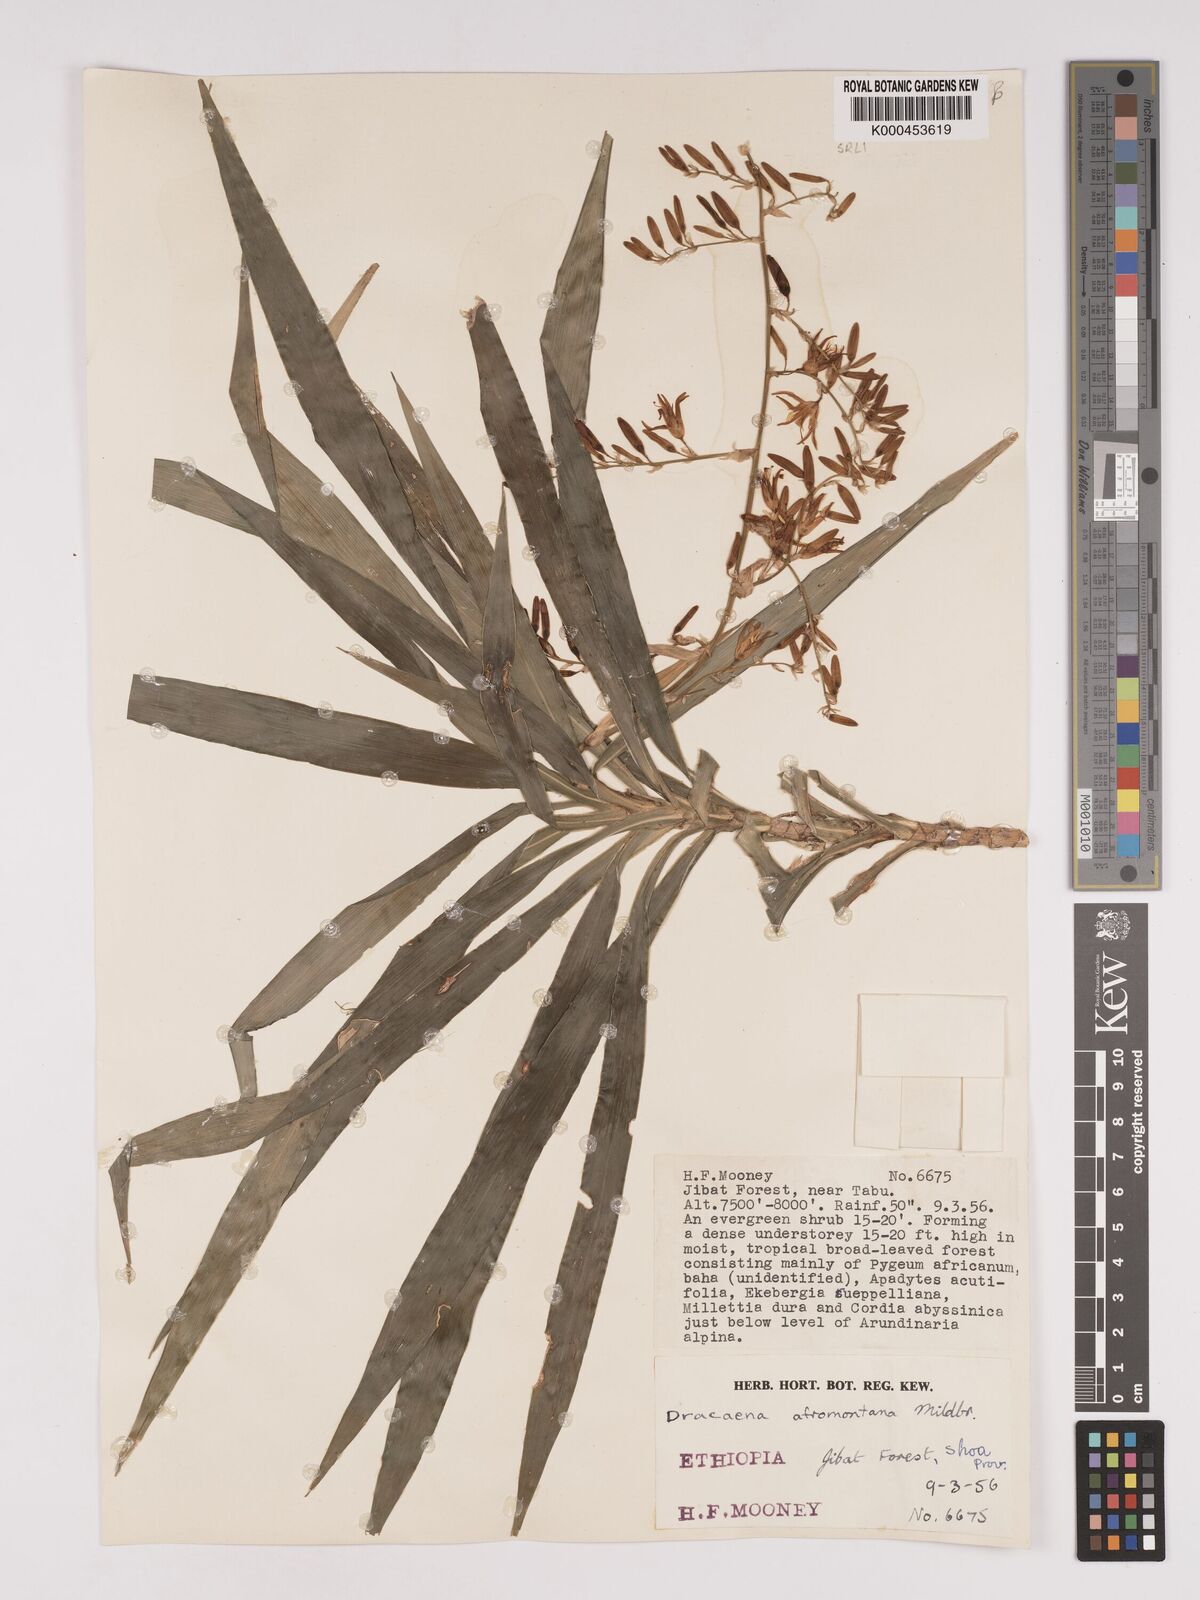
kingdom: Plantae
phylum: Tracheophyta
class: Liliopsida
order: Asparagales
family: Asparagaceae
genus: Dracaena
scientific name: Dracaena afromontana
